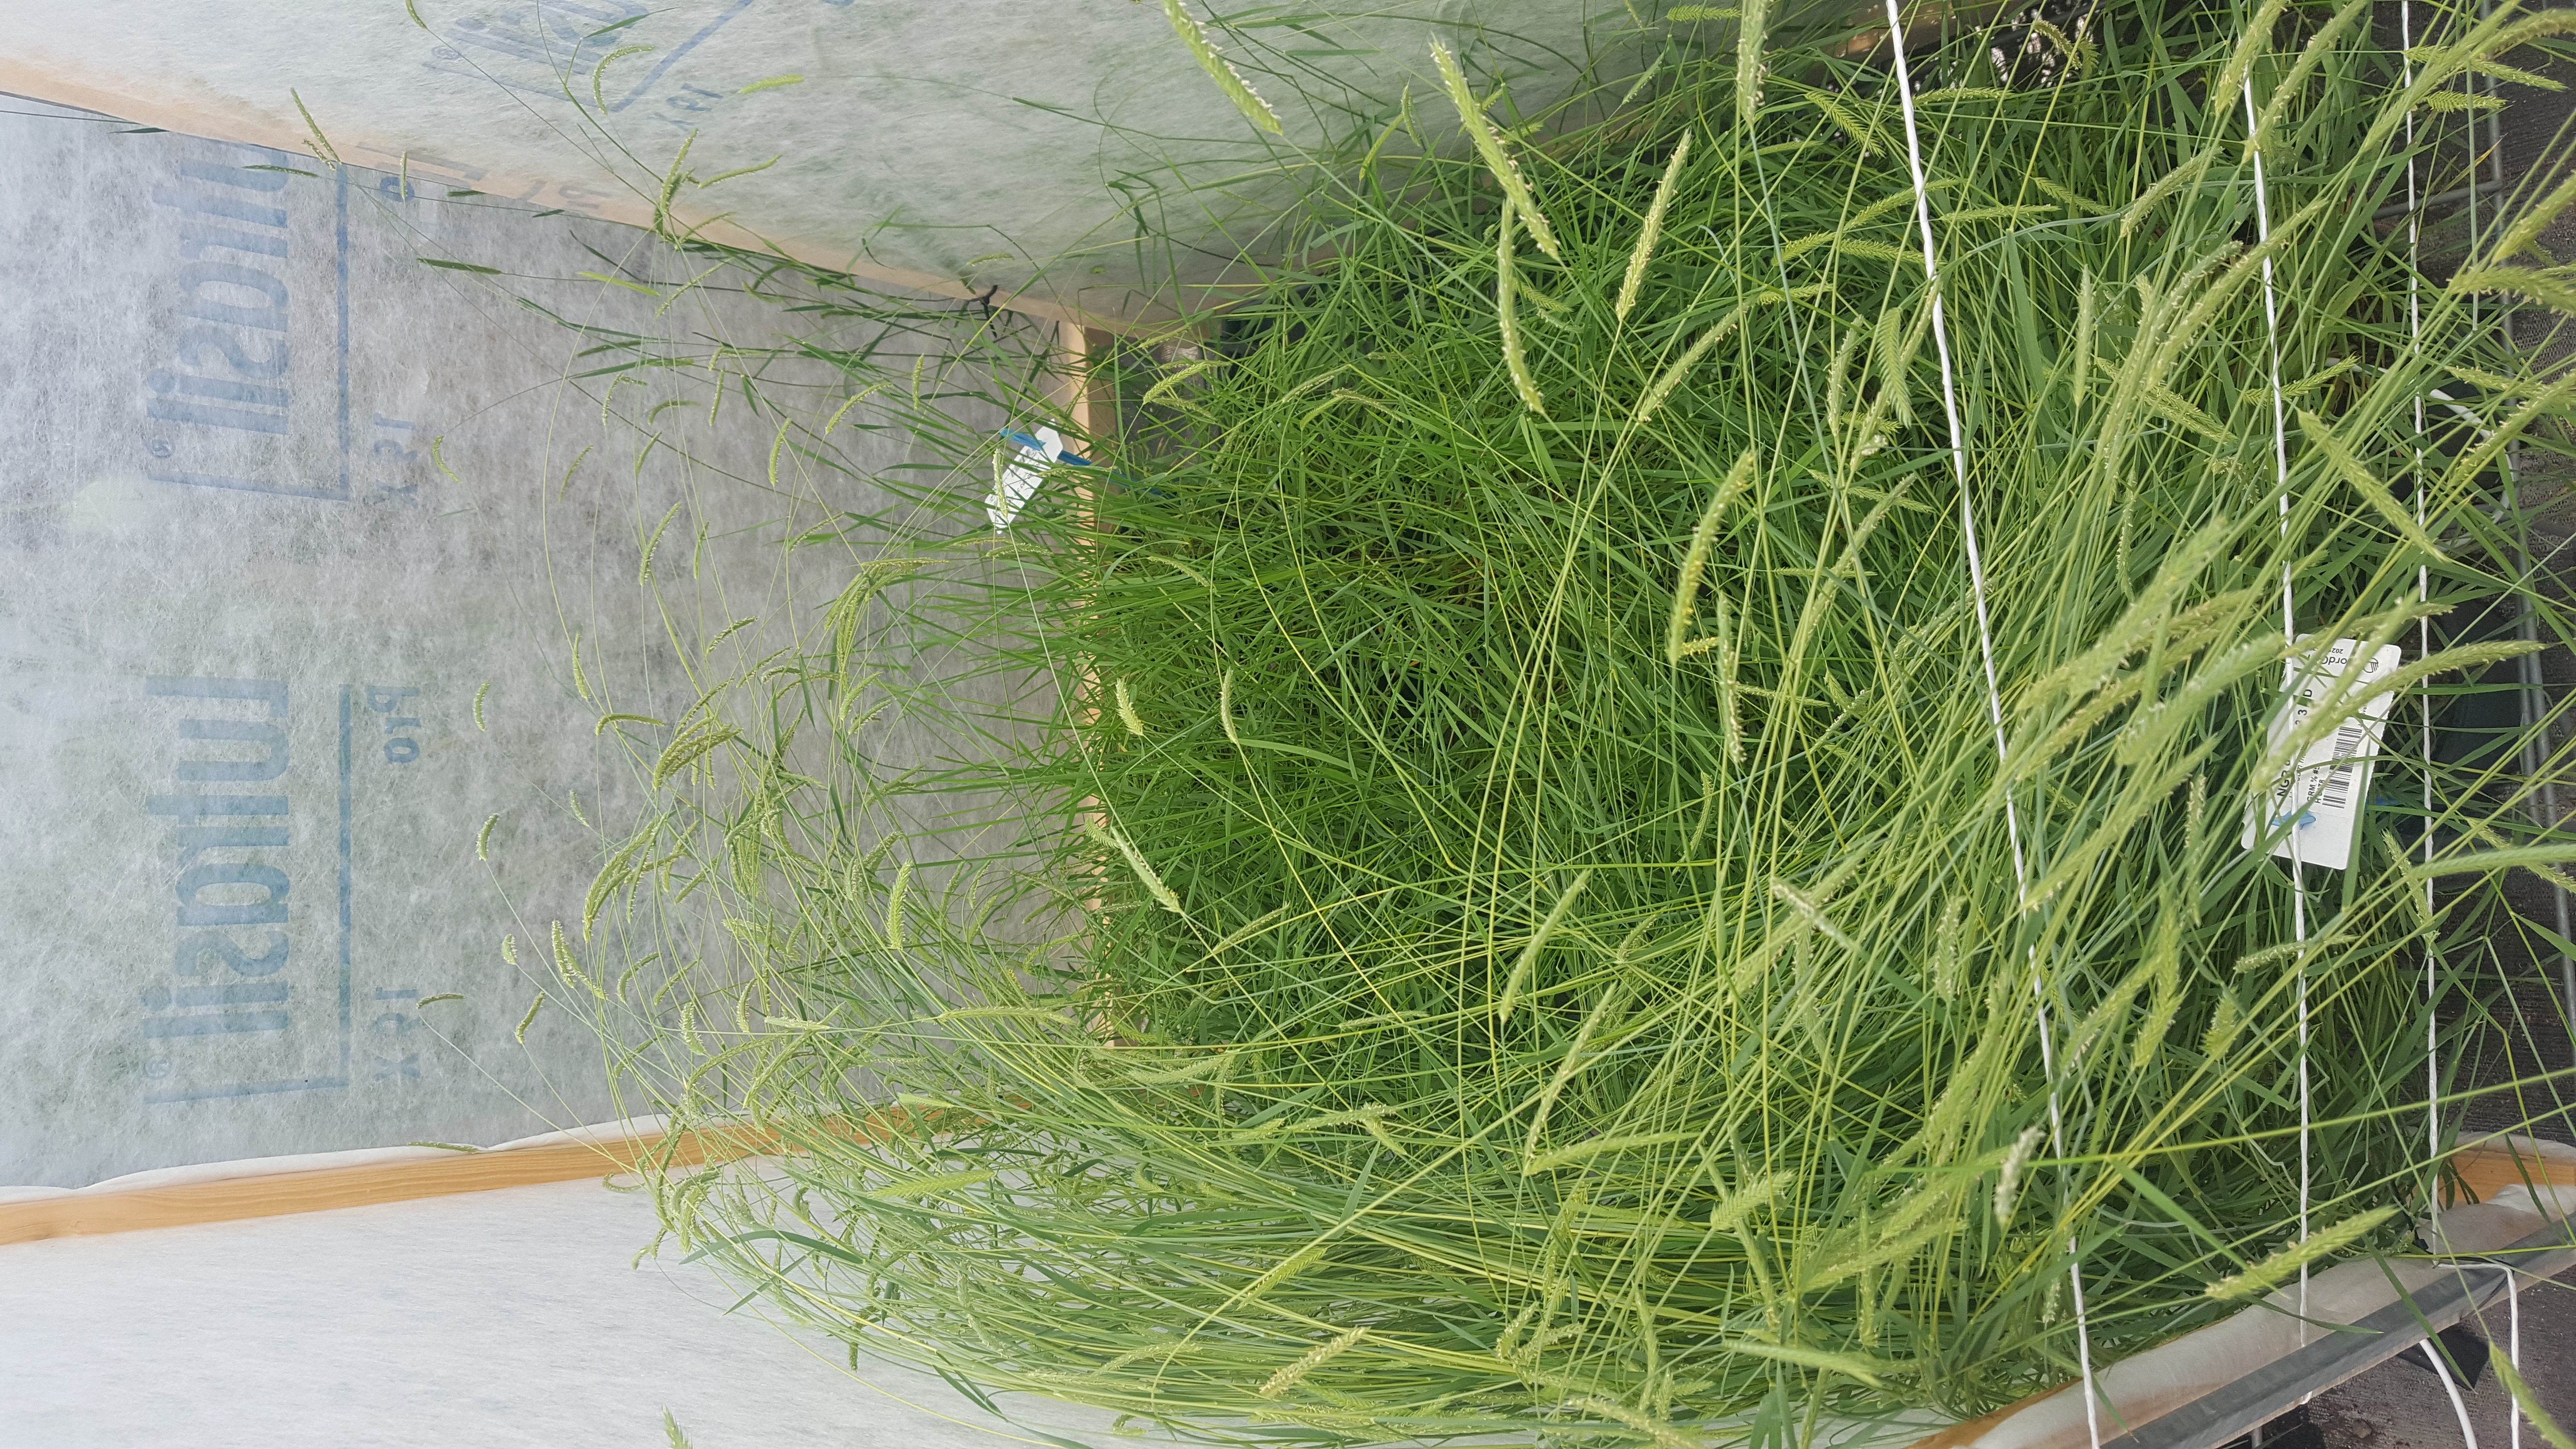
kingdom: Plantae
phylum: Tracheophyta
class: Liliopsida
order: Poales
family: Poaceae
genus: Hordeum
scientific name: Hordeum muticum
